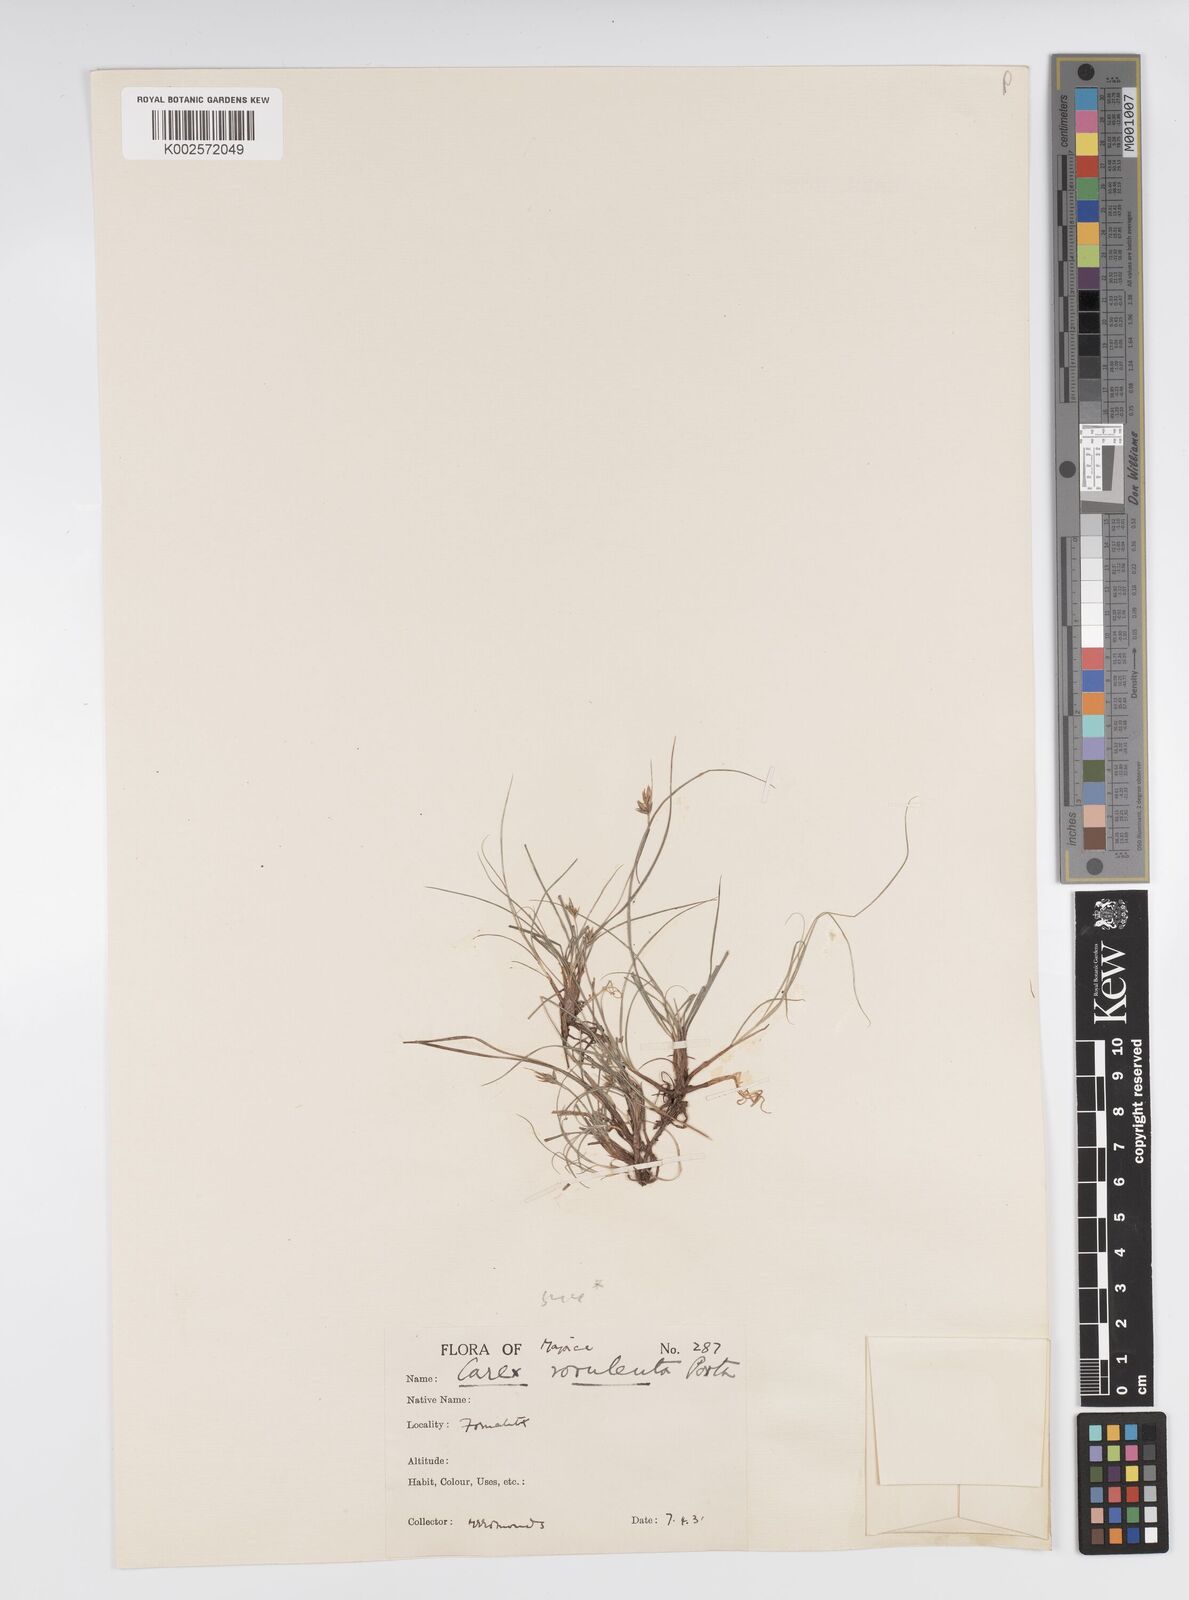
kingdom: Plantae
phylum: Tracheophyta
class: Liliopsida
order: Poales
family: Cyperaceae
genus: Carex
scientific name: Carex rorulenta
